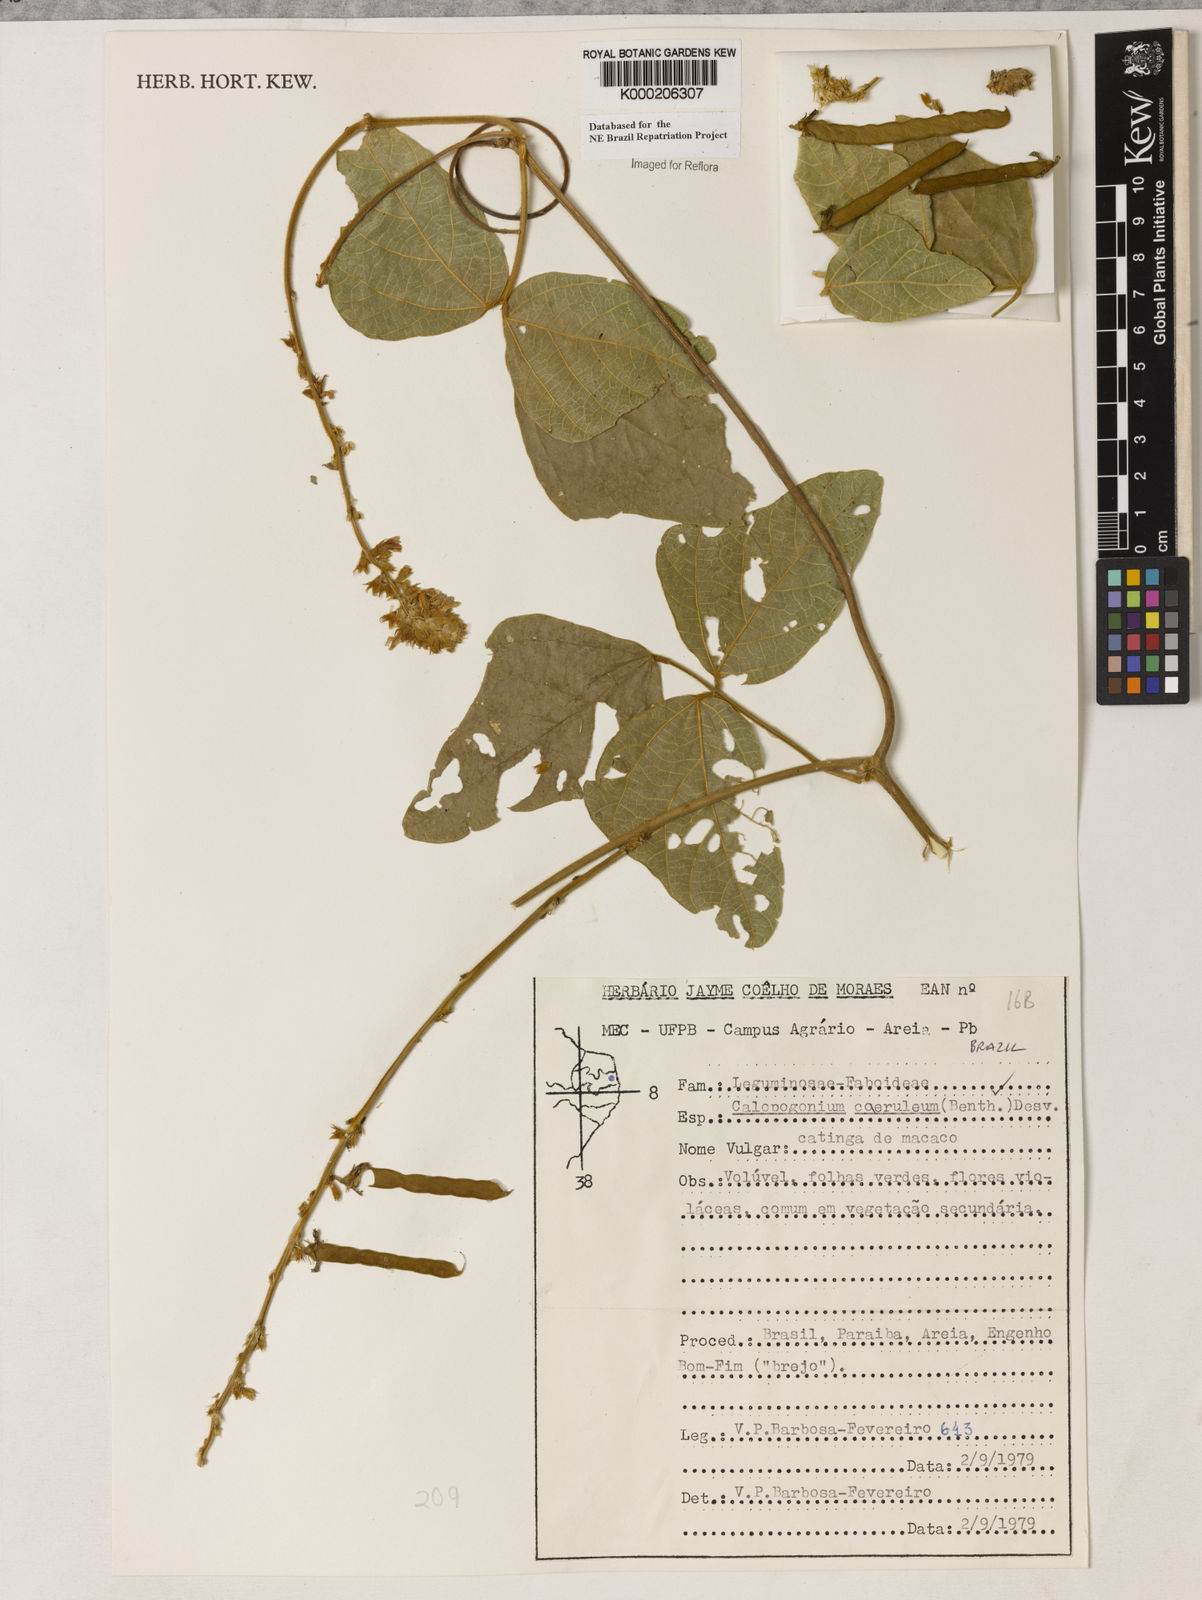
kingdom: Plantae
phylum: Tracheophyta
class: Magnoliopsida
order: Fabales
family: Fabaceae
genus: Calopogonium
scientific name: Calopogonium
